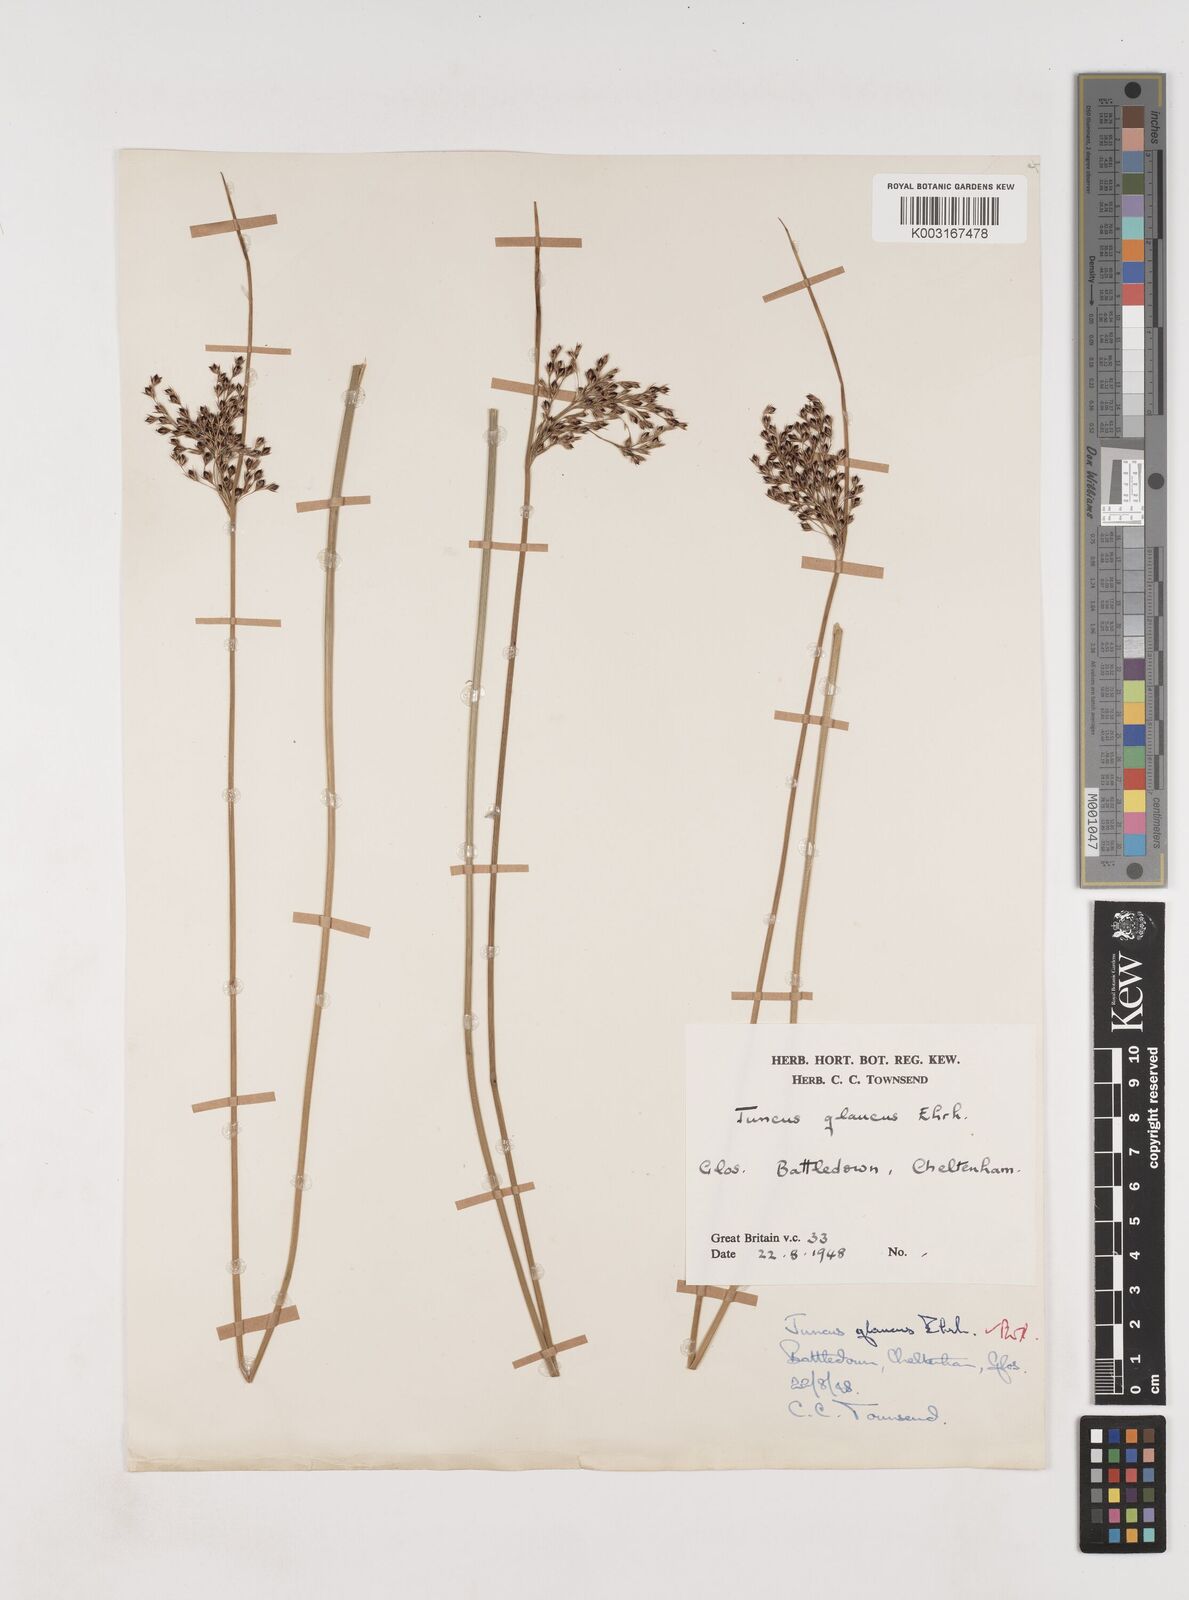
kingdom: Plantae
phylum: Tracheophyta
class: Liliopsida
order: Poales
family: Juncaceae
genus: Juncus
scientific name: Juncus inflexus
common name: Hard rush
